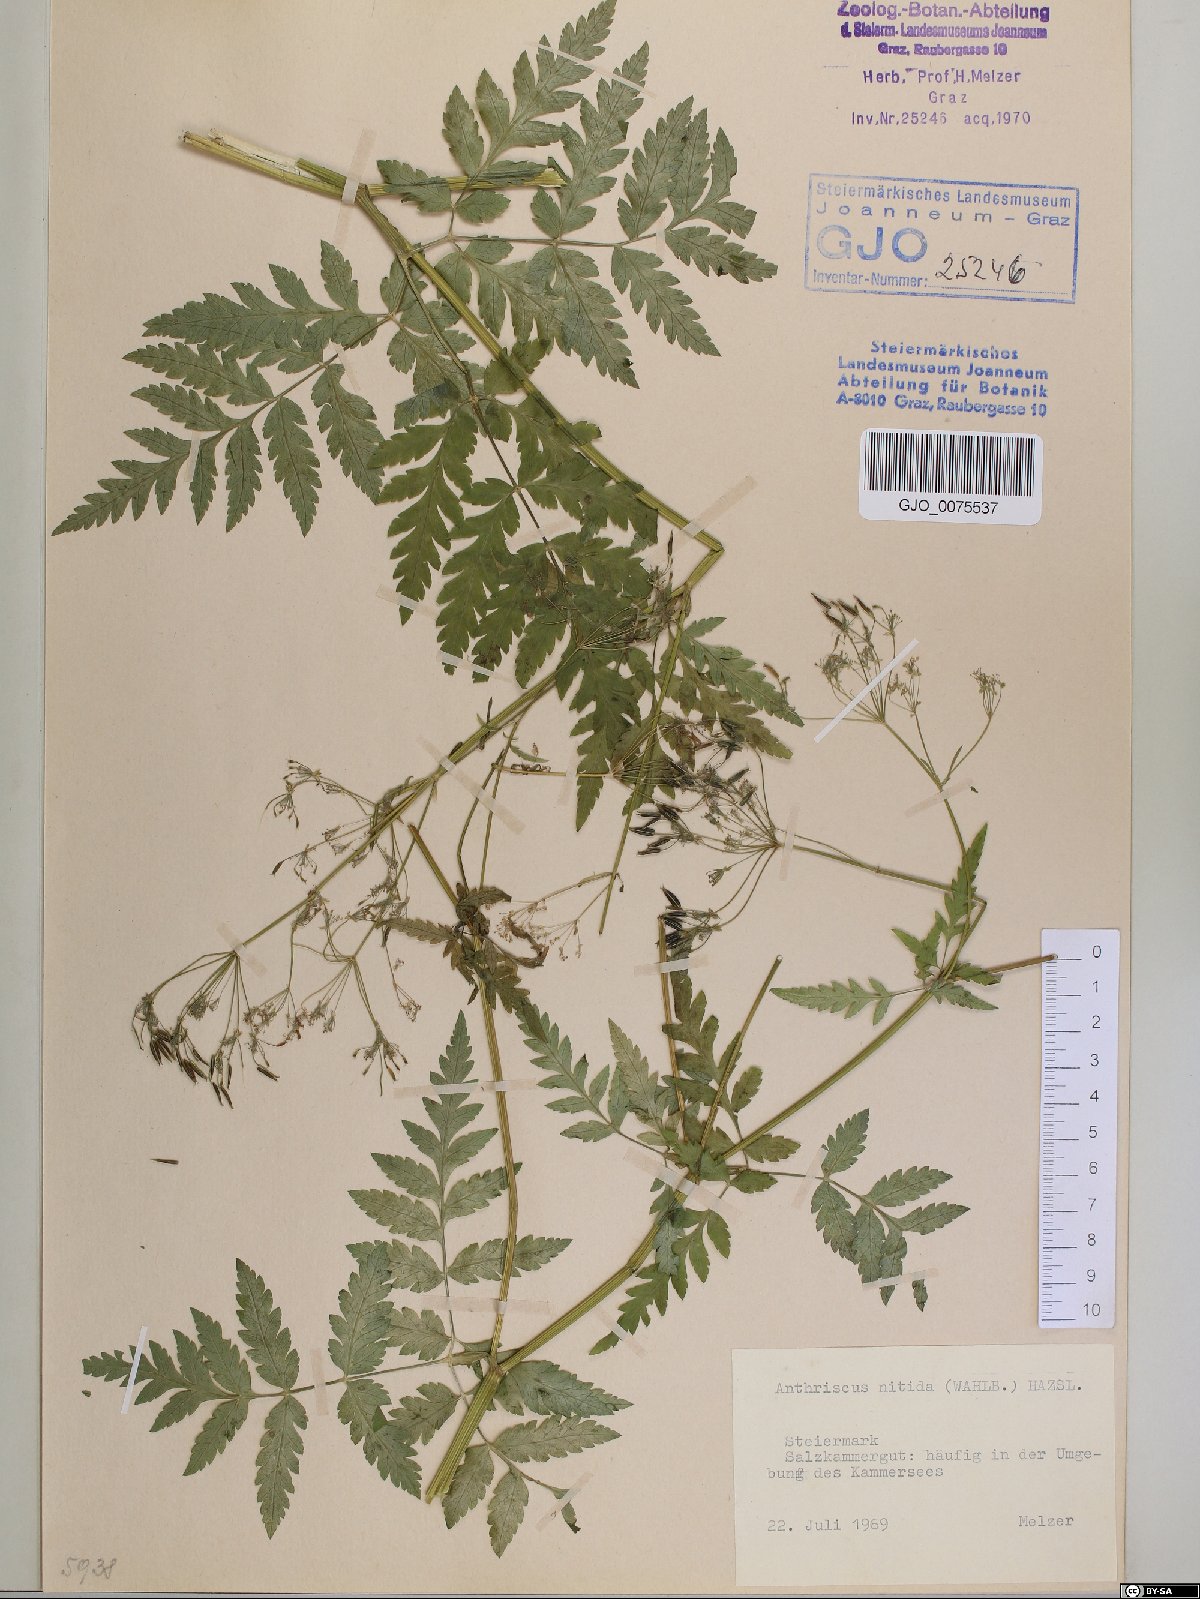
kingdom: Plantae
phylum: Tracheophyta
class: Magnoliopsida
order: Apiales
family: Apiaceae
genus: Anthriscus
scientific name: Anthriscus nitida
